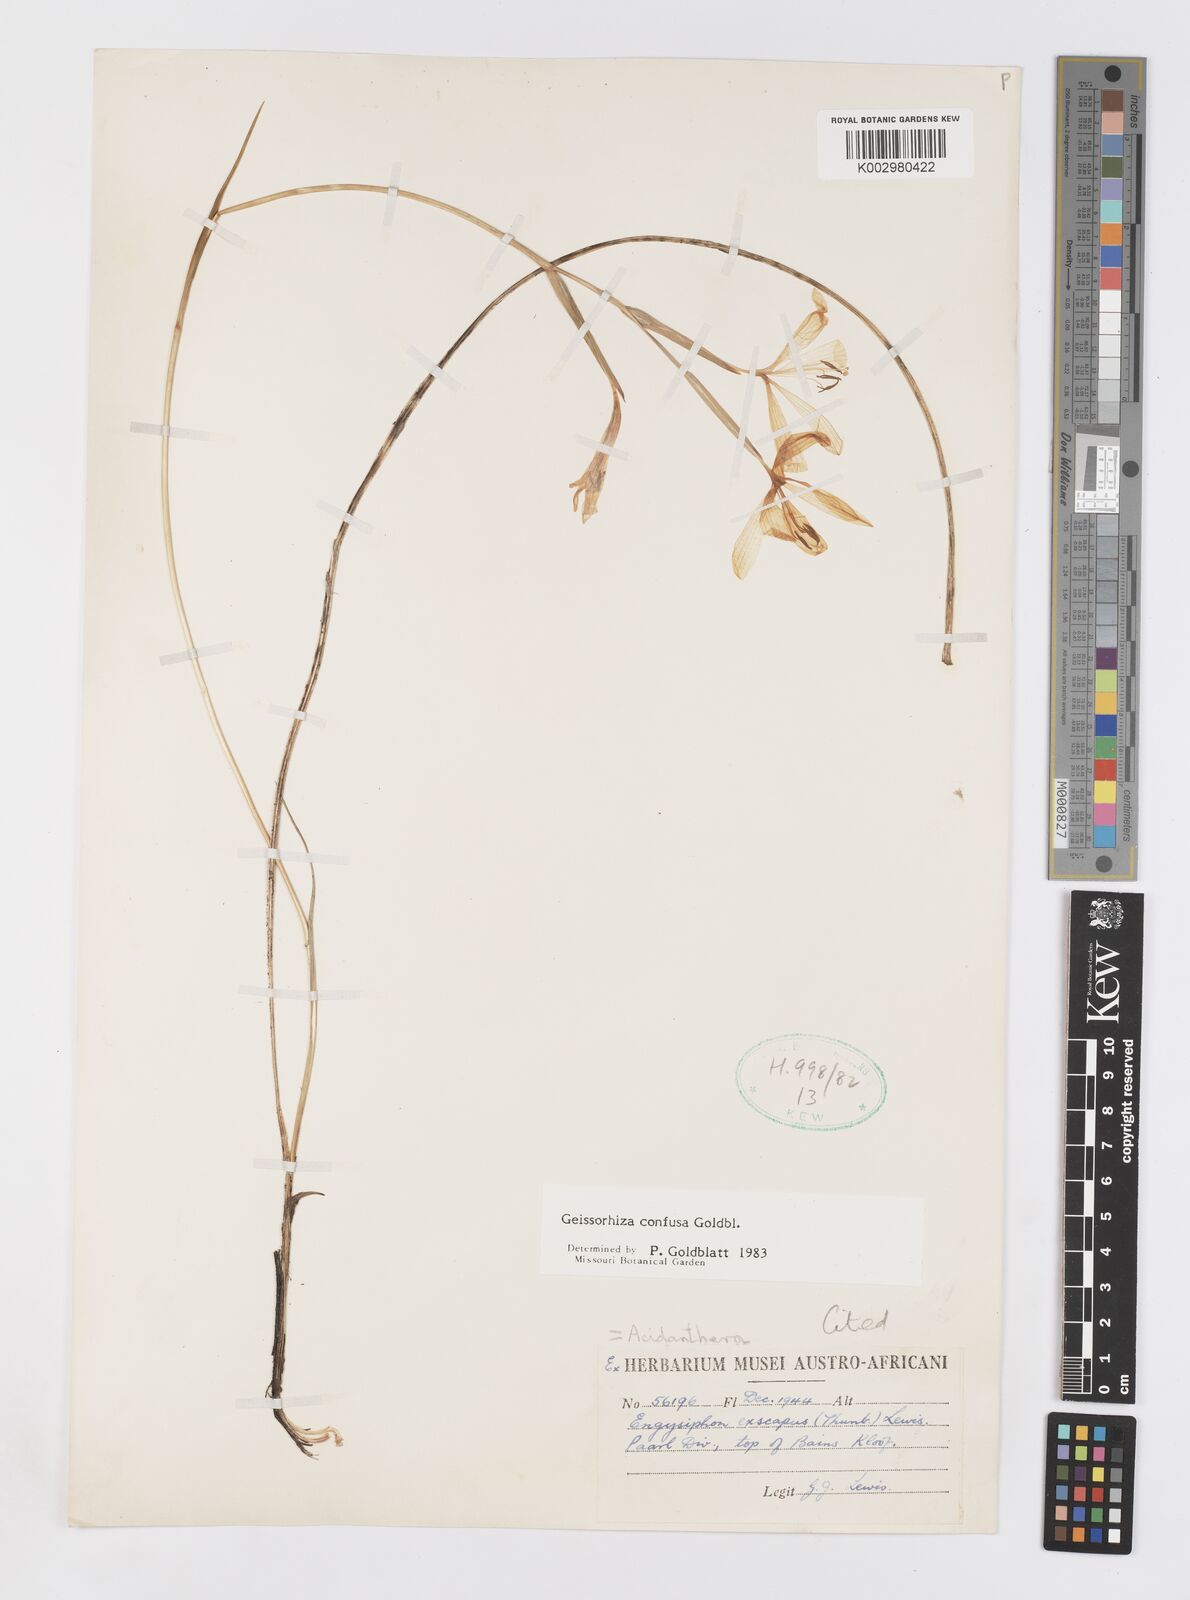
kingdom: Plantae
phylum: Tracheophyta
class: Liliopsida
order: Asparagales
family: Iridaceae
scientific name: Iridaceae
